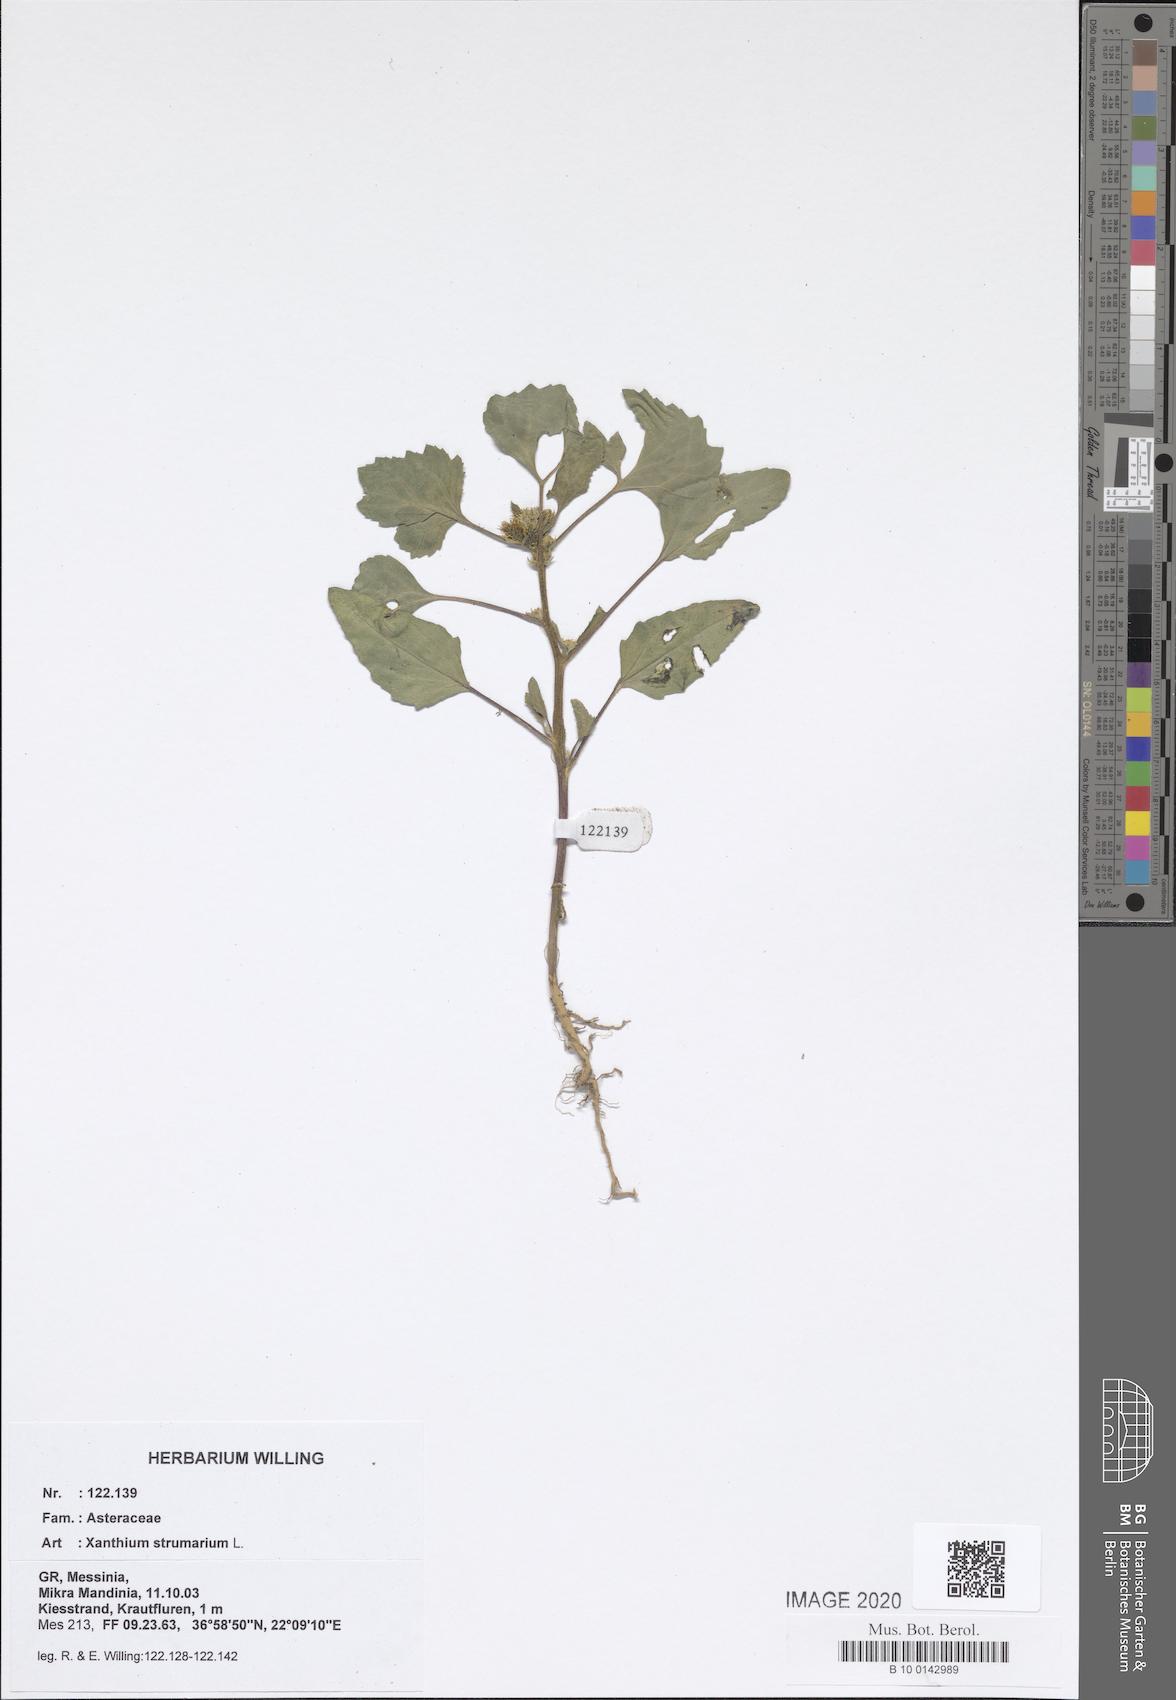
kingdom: Plantae
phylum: Tracheophyta
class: Magnoliopsida
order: Asterales
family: Asteraceae
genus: Xanthium
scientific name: Xanthium strumarium
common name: Rough cocklebur
